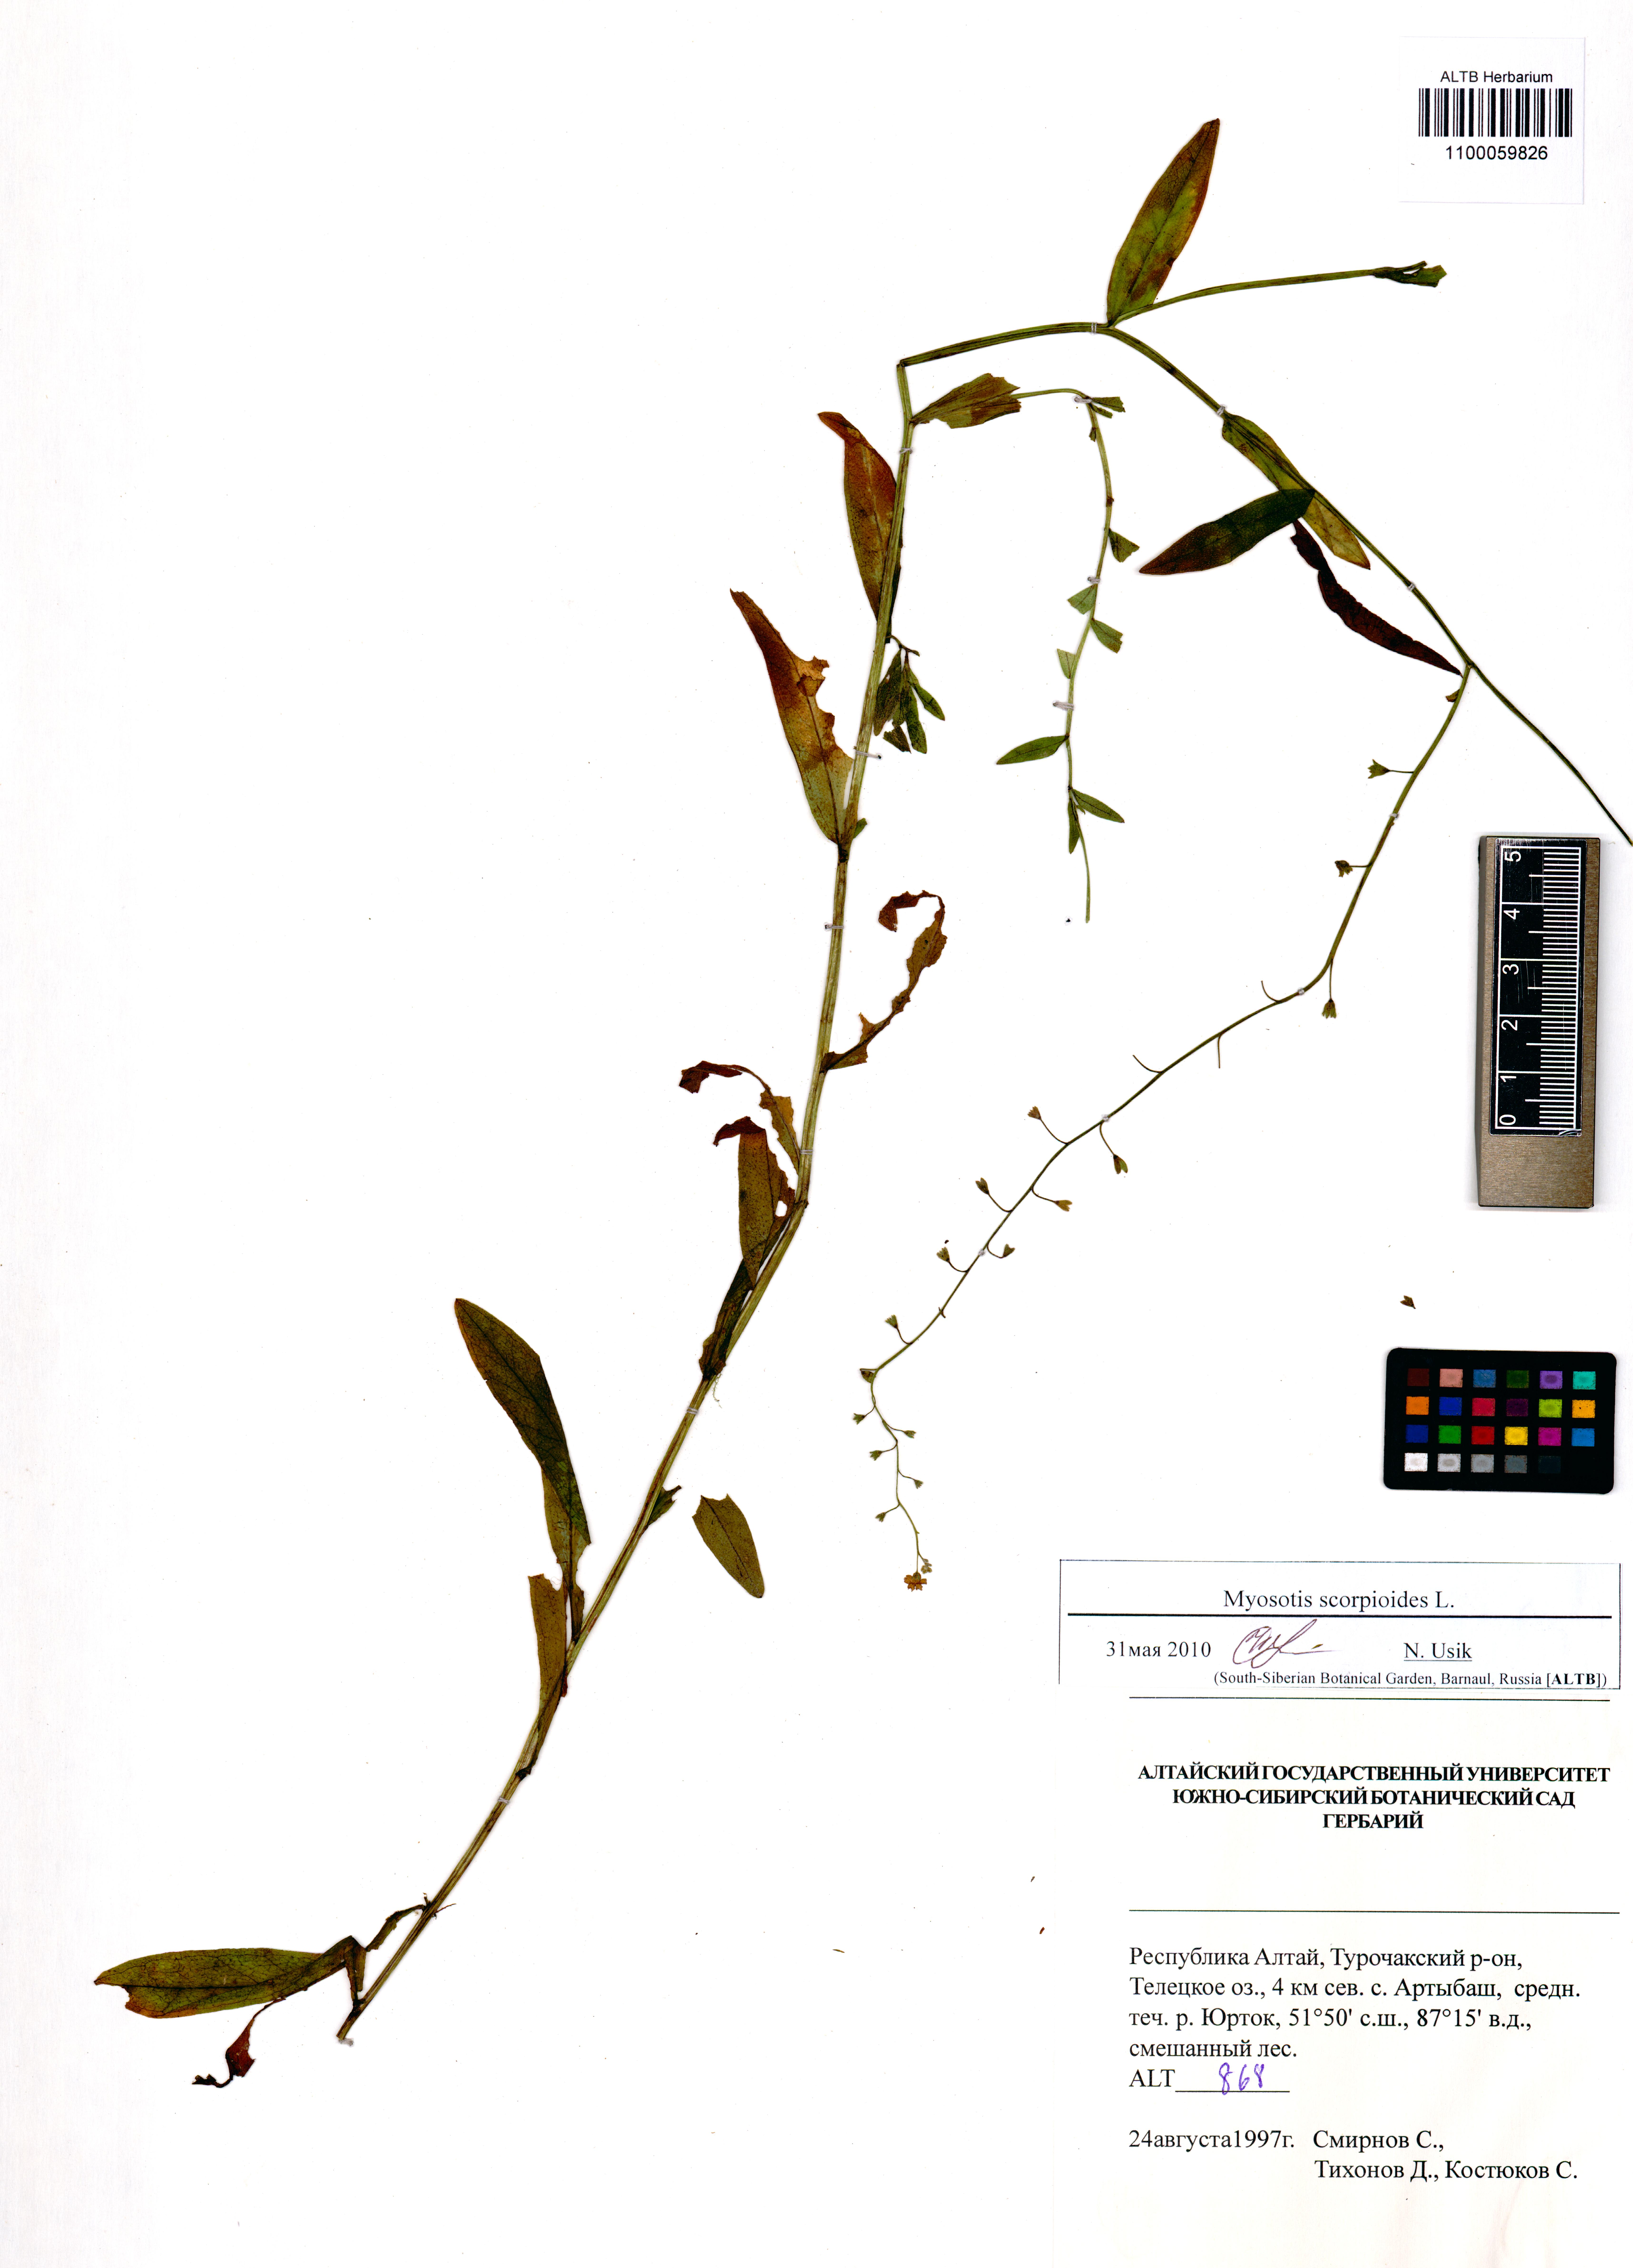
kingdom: Plantae
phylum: Tracheophyta
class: Magnoliopsida
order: Boraginales
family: Boraginaceae
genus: Myosotis
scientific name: Myosotis scorpioides
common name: Water forget-me-not
